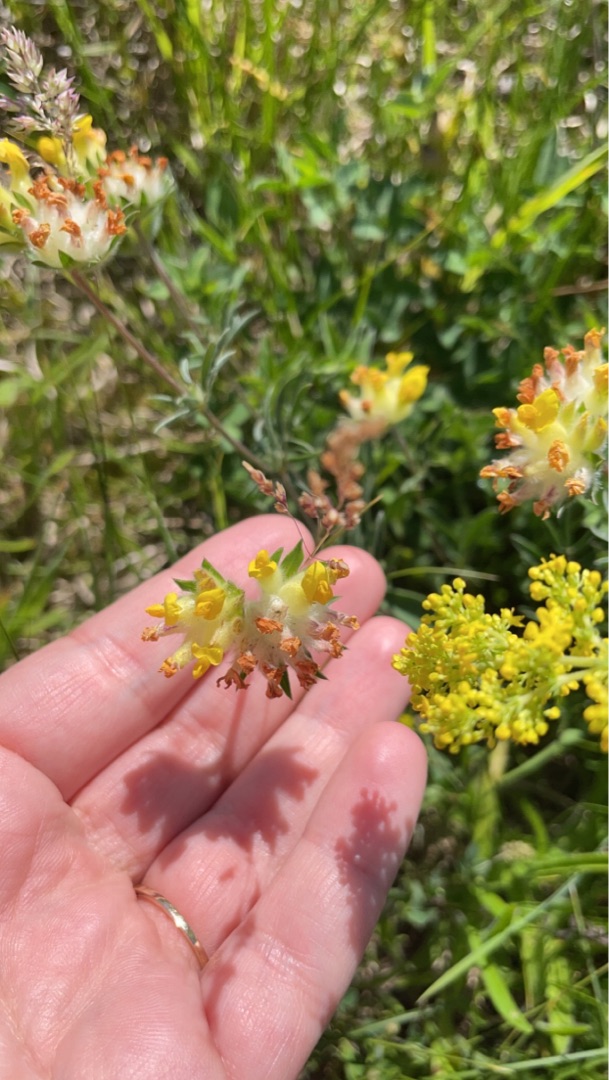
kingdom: Plantae
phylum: Tracheophyta
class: Magnoliopsida
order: Fabales
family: Fabaceae
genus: Anthyllis
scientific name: Anthyllis vulneraria
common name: Rundbælg
